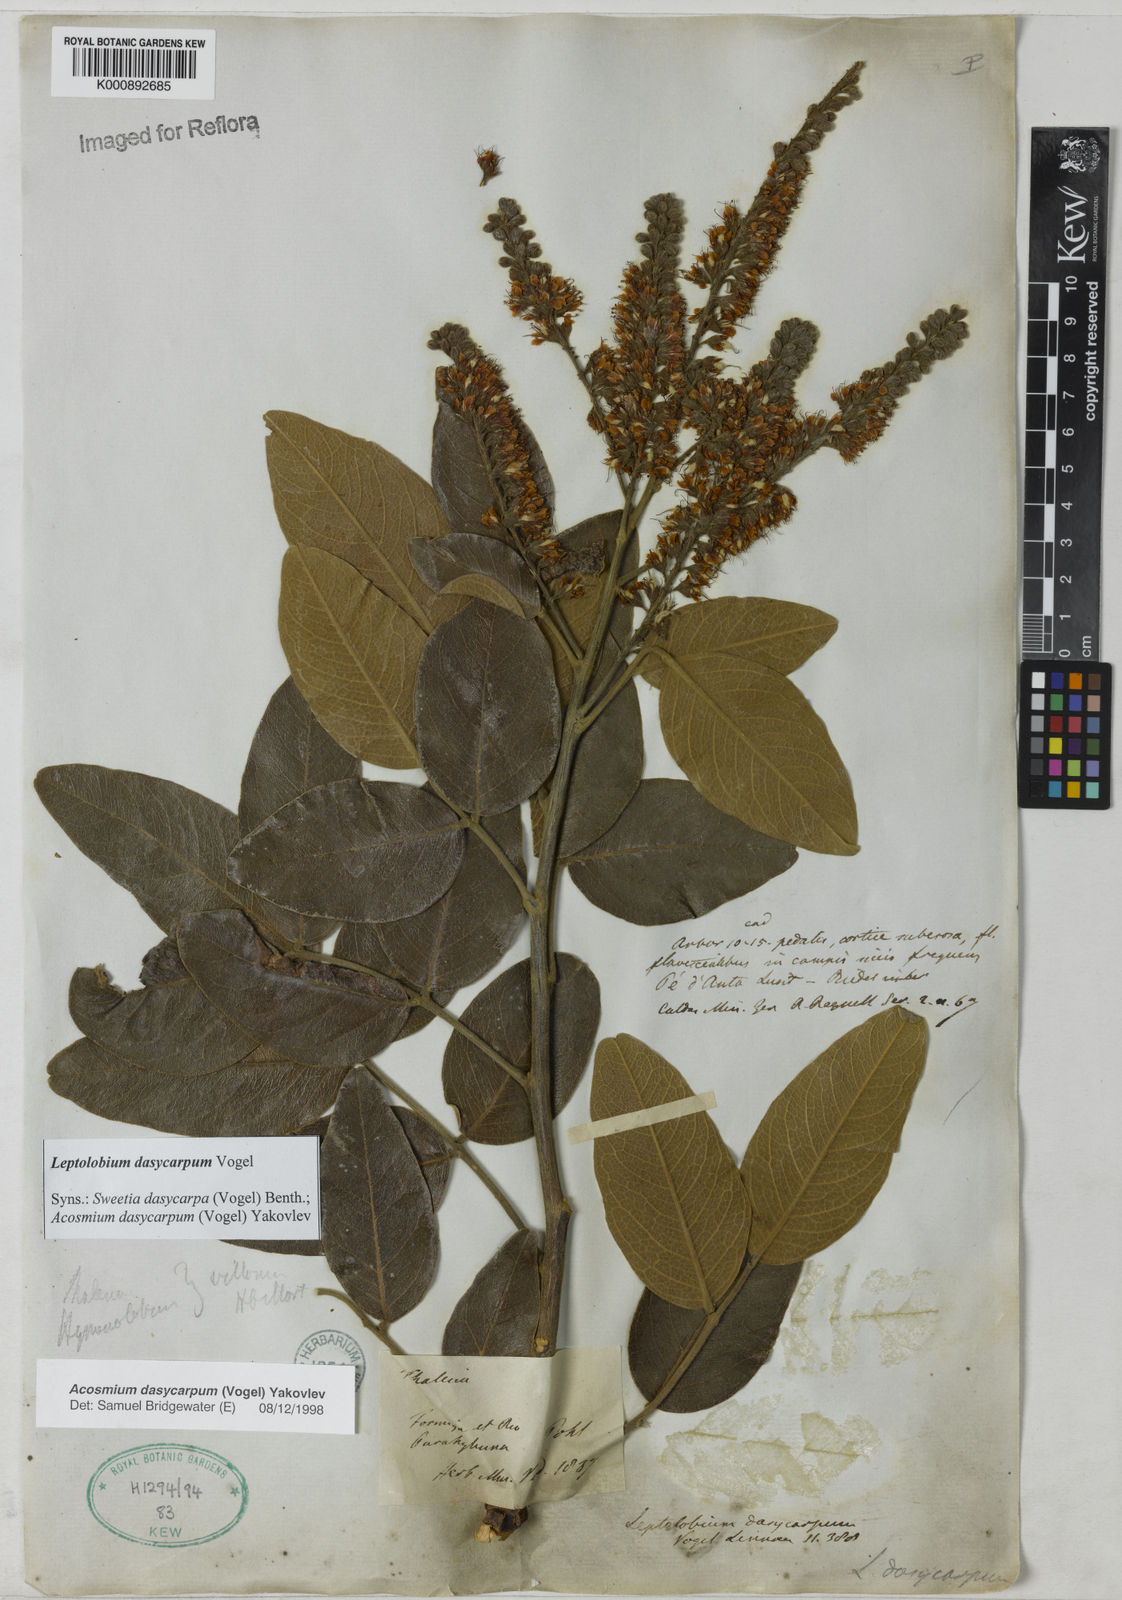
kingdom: Plantae
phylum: Tracheophyta
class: Magnoliopsida
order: Fabales
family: Fabaceae
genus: Leptolobium
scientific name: Leptolobium dasycarpum
